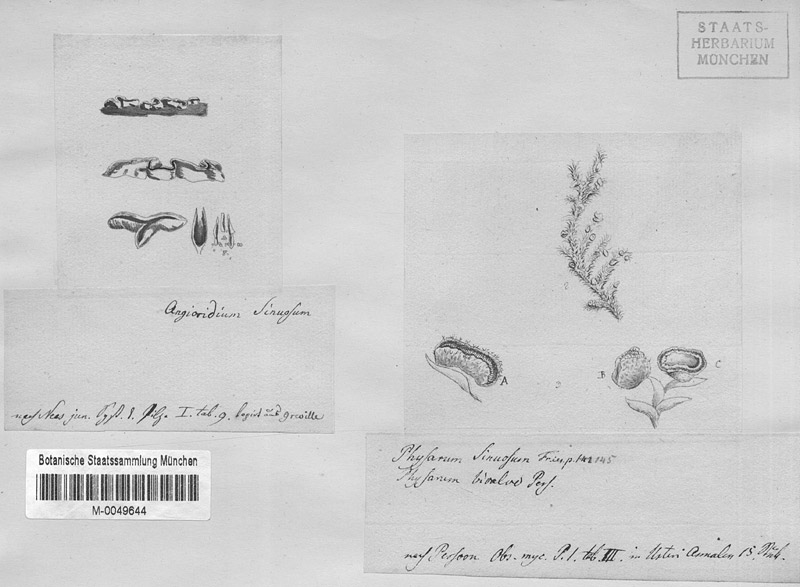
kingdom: Protozoa
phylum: Mycetozoa
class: Myxomycetes
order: Physarales
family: Physaraceae
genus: Physarum
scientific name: Physarum bivalve
